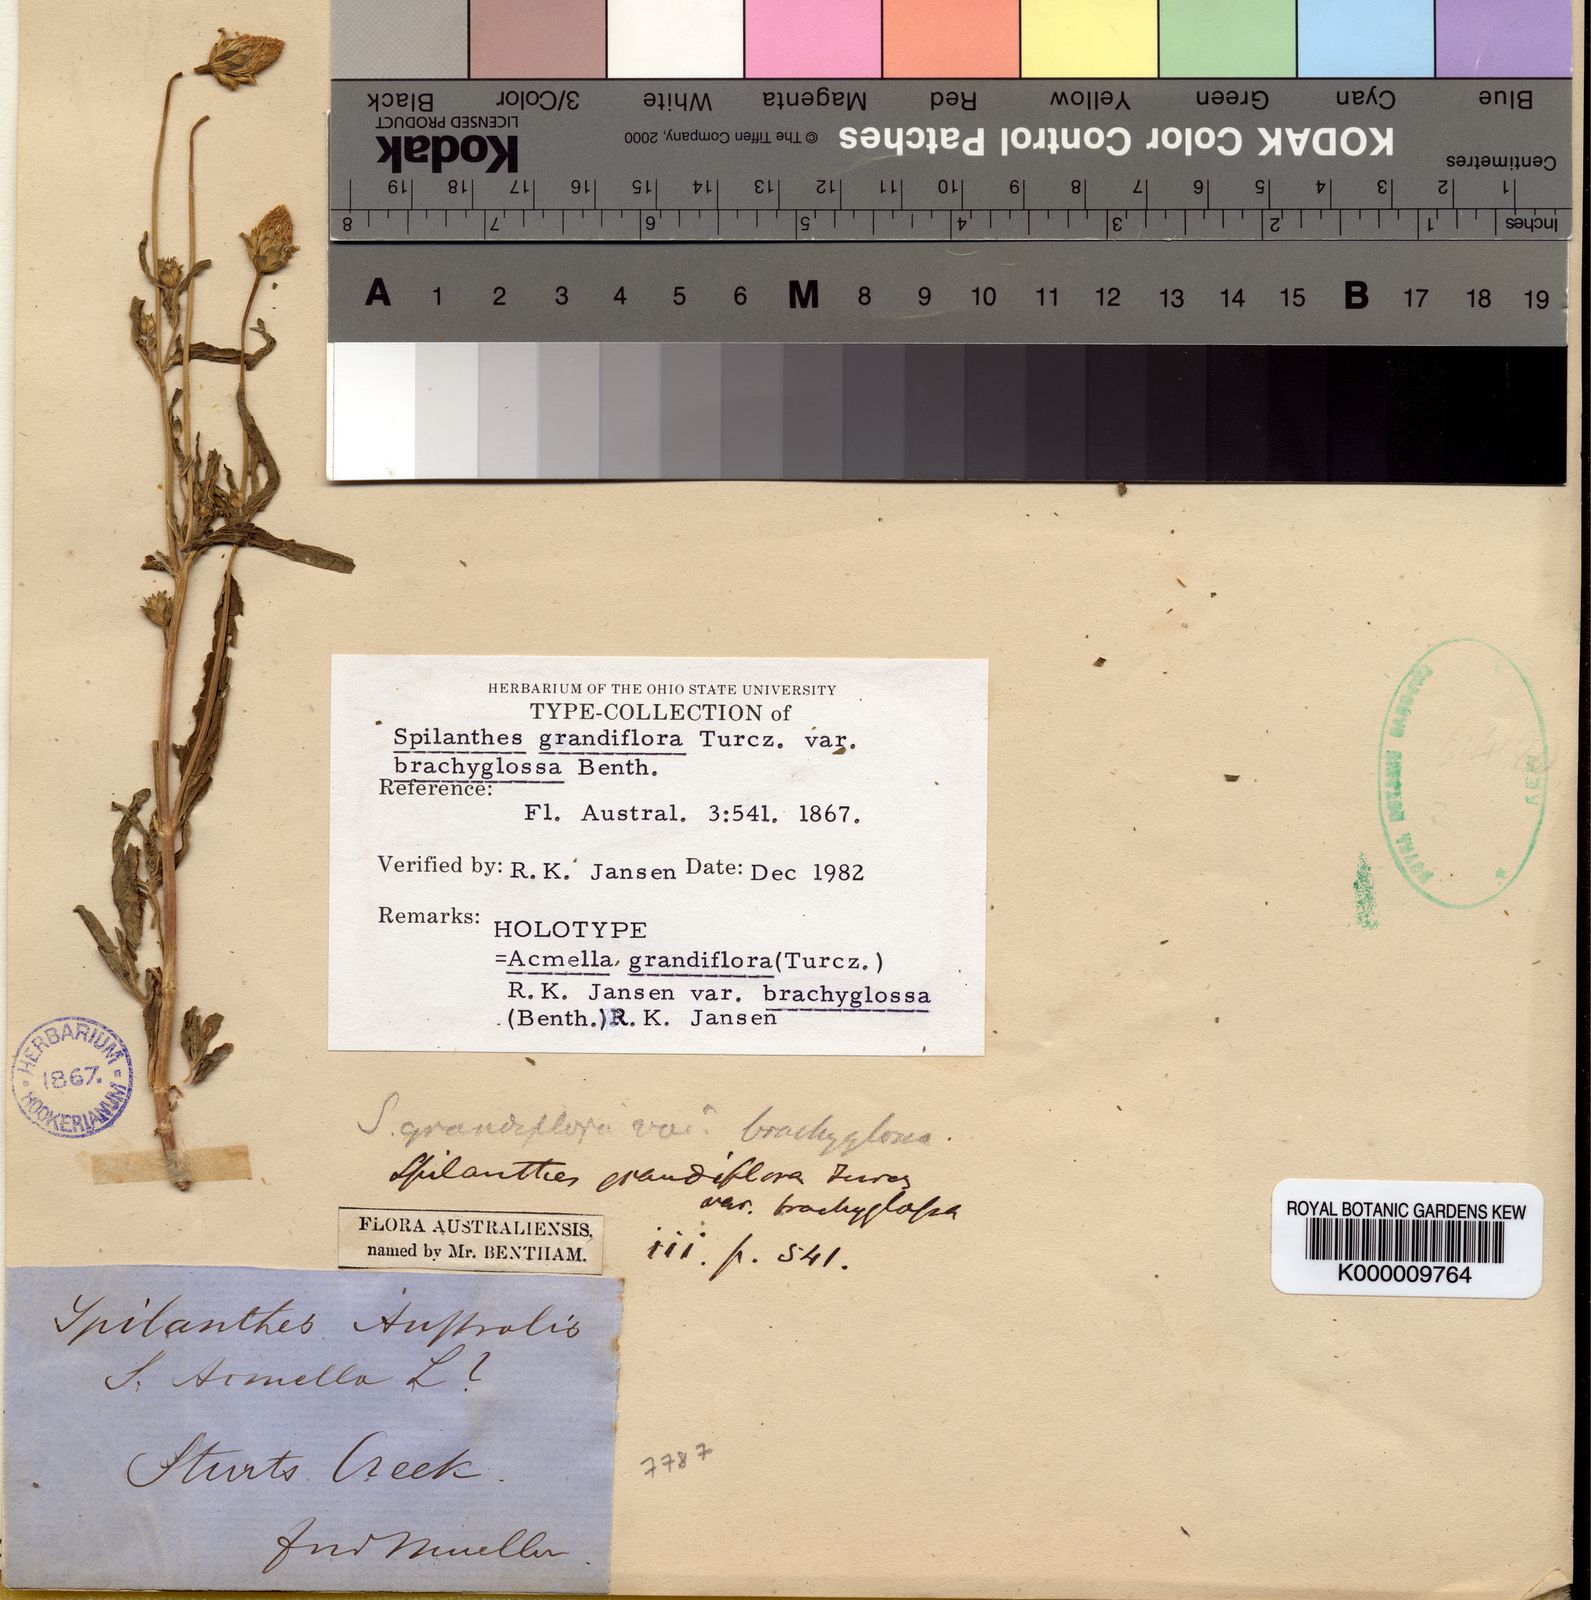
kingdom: Plantae
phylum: Tracheophyta
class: Magnoliopsida
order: Asterales
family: Asteraceae
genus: Acmella
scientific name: Acmella grandiflora
